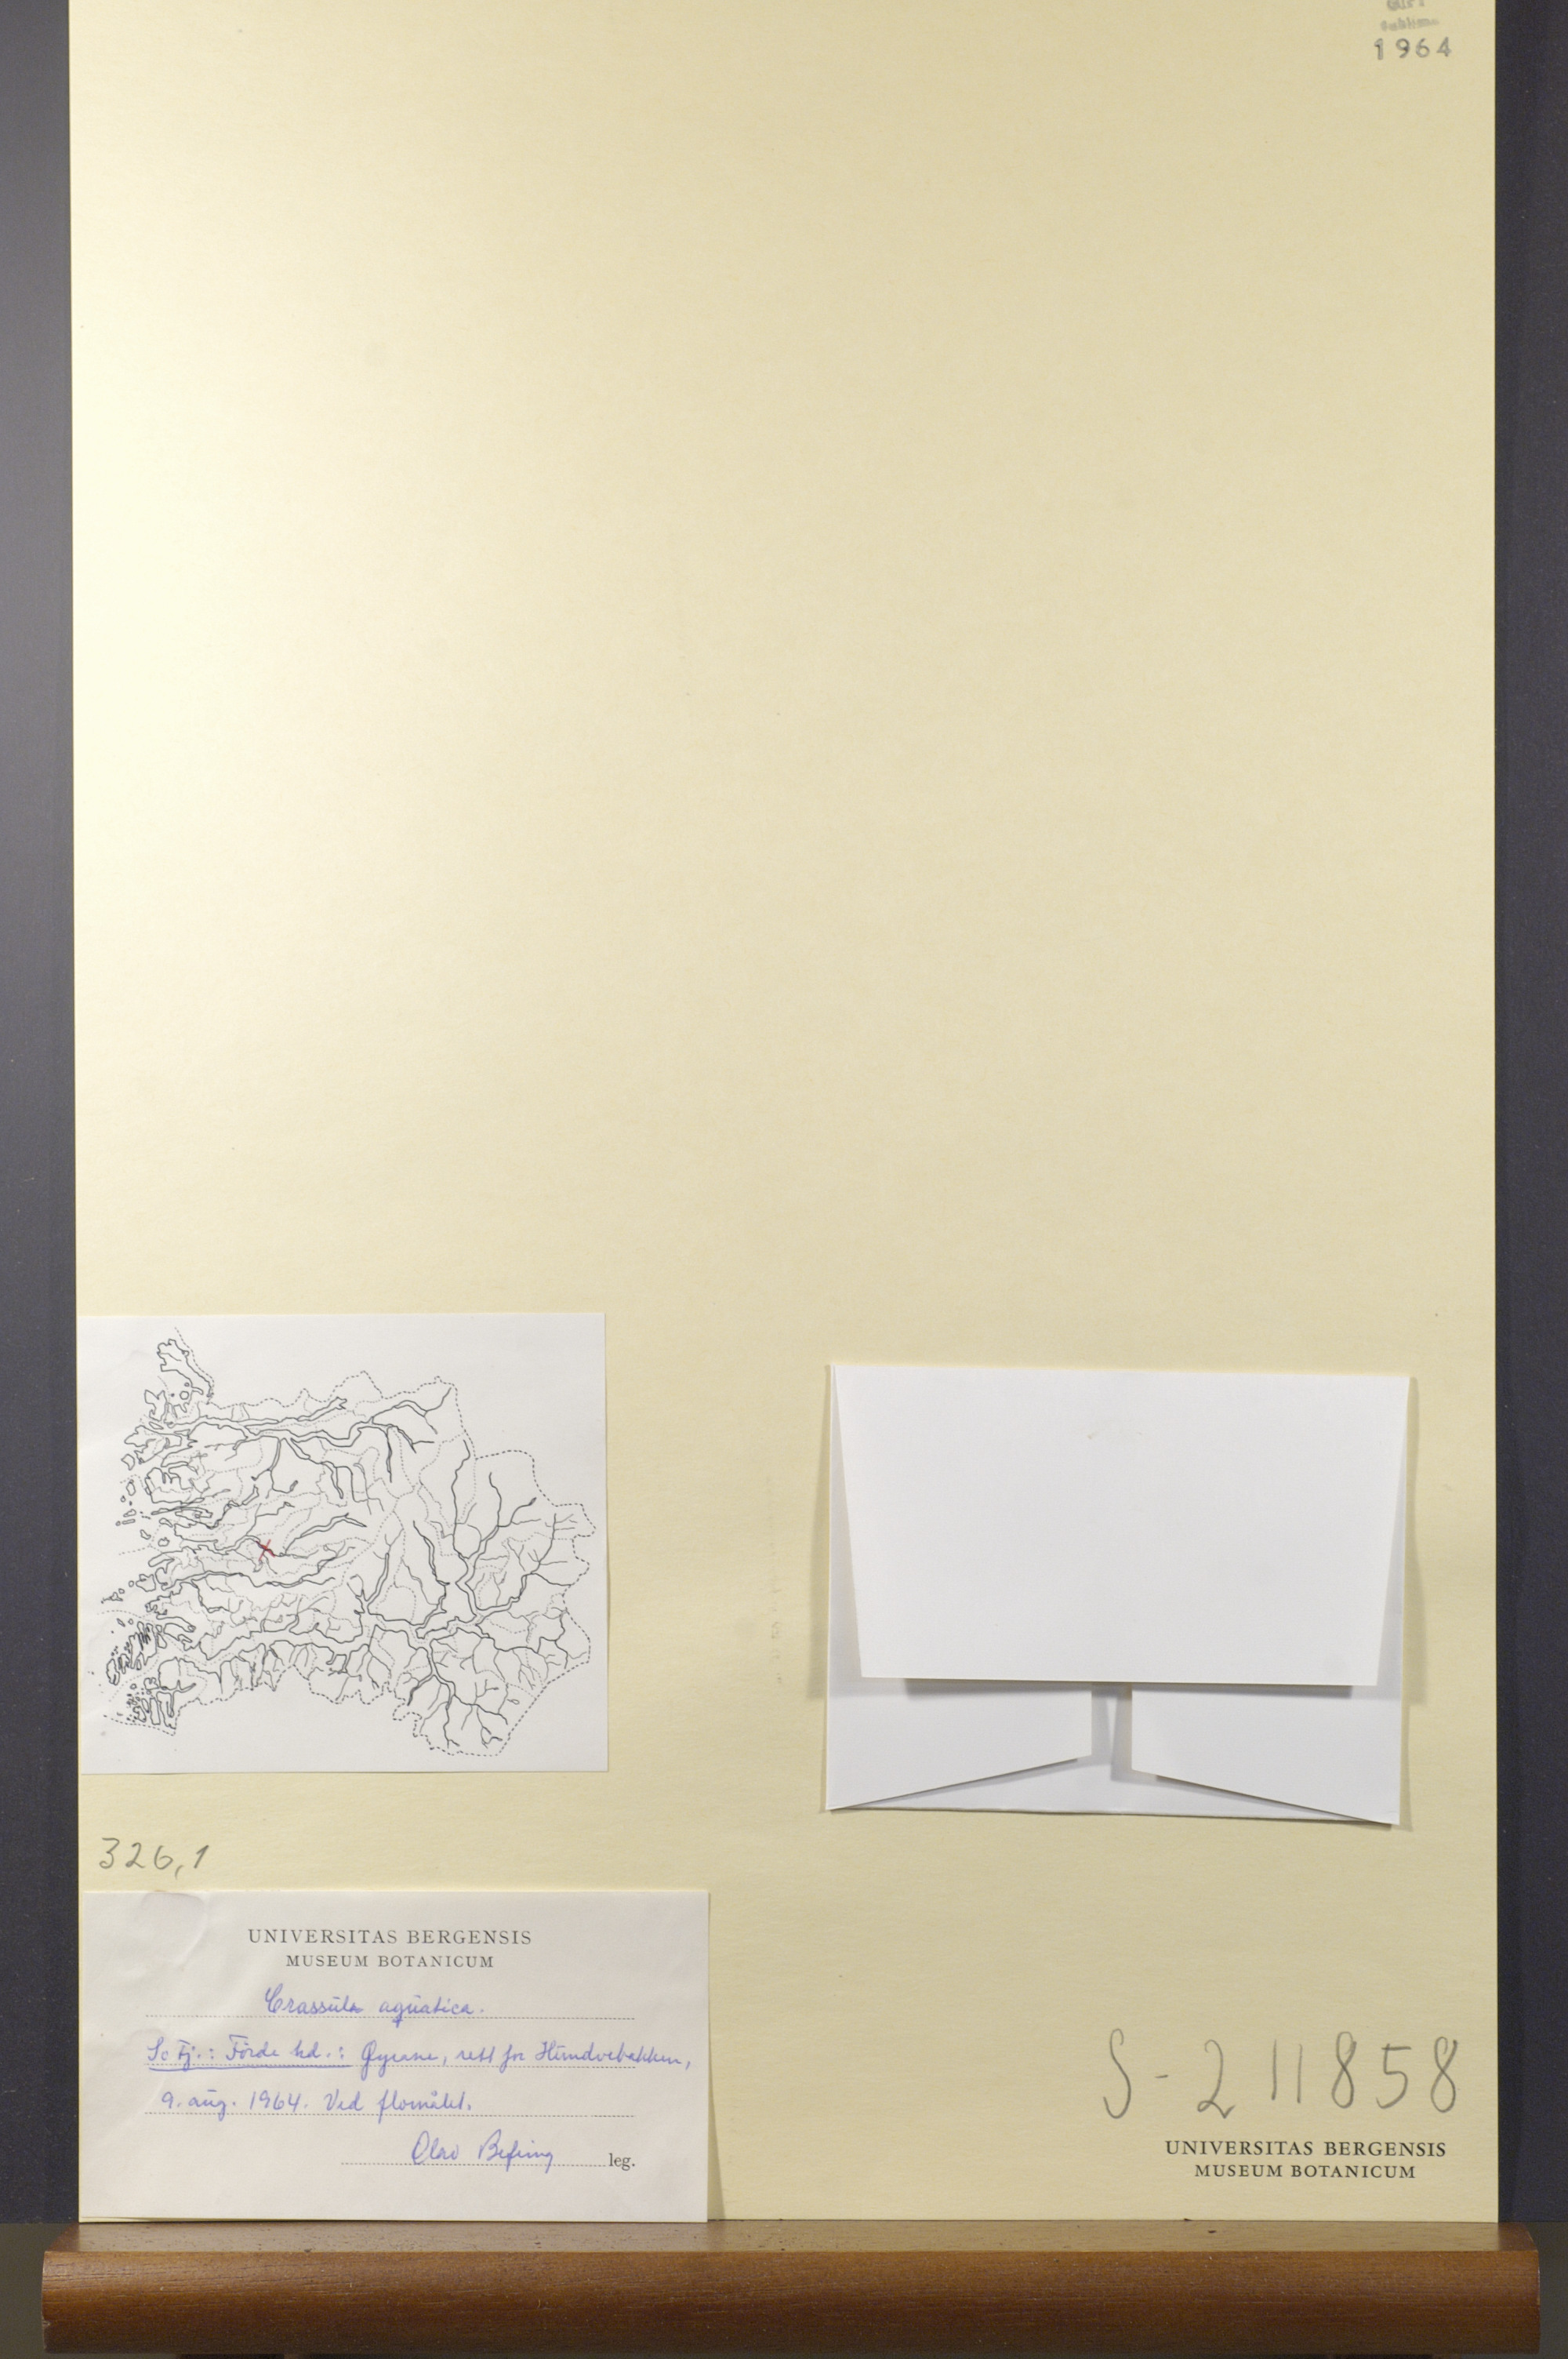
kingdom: Plantae
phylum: Tracheophyta
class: Magnoliopsida
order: Saxifragales
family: Crassulaceae
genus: Crassula
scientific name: Crassula aquatica
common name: Pigmyweed
